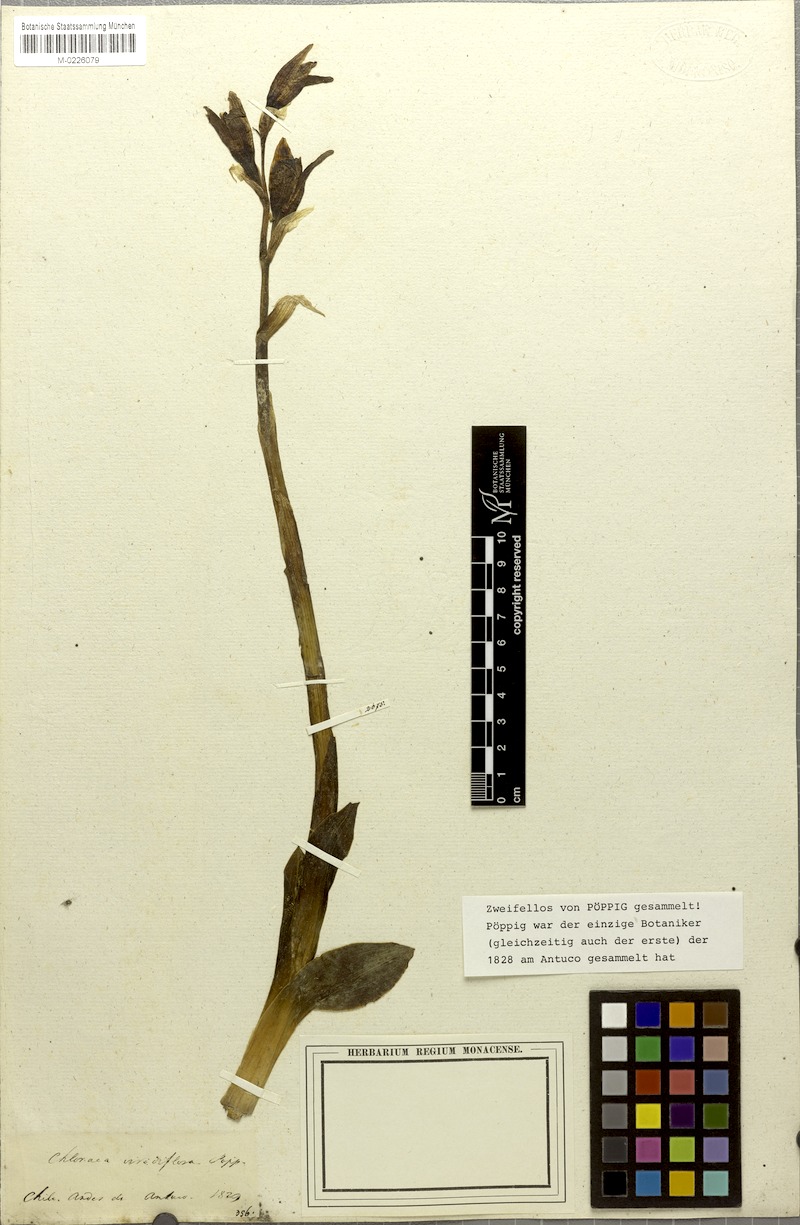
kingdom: Plantae
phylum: Tracheophyta
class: Liliopsida
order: Asparagales
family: Orchidaceae
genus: Chloraea
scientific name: Chloraea viridiflora
